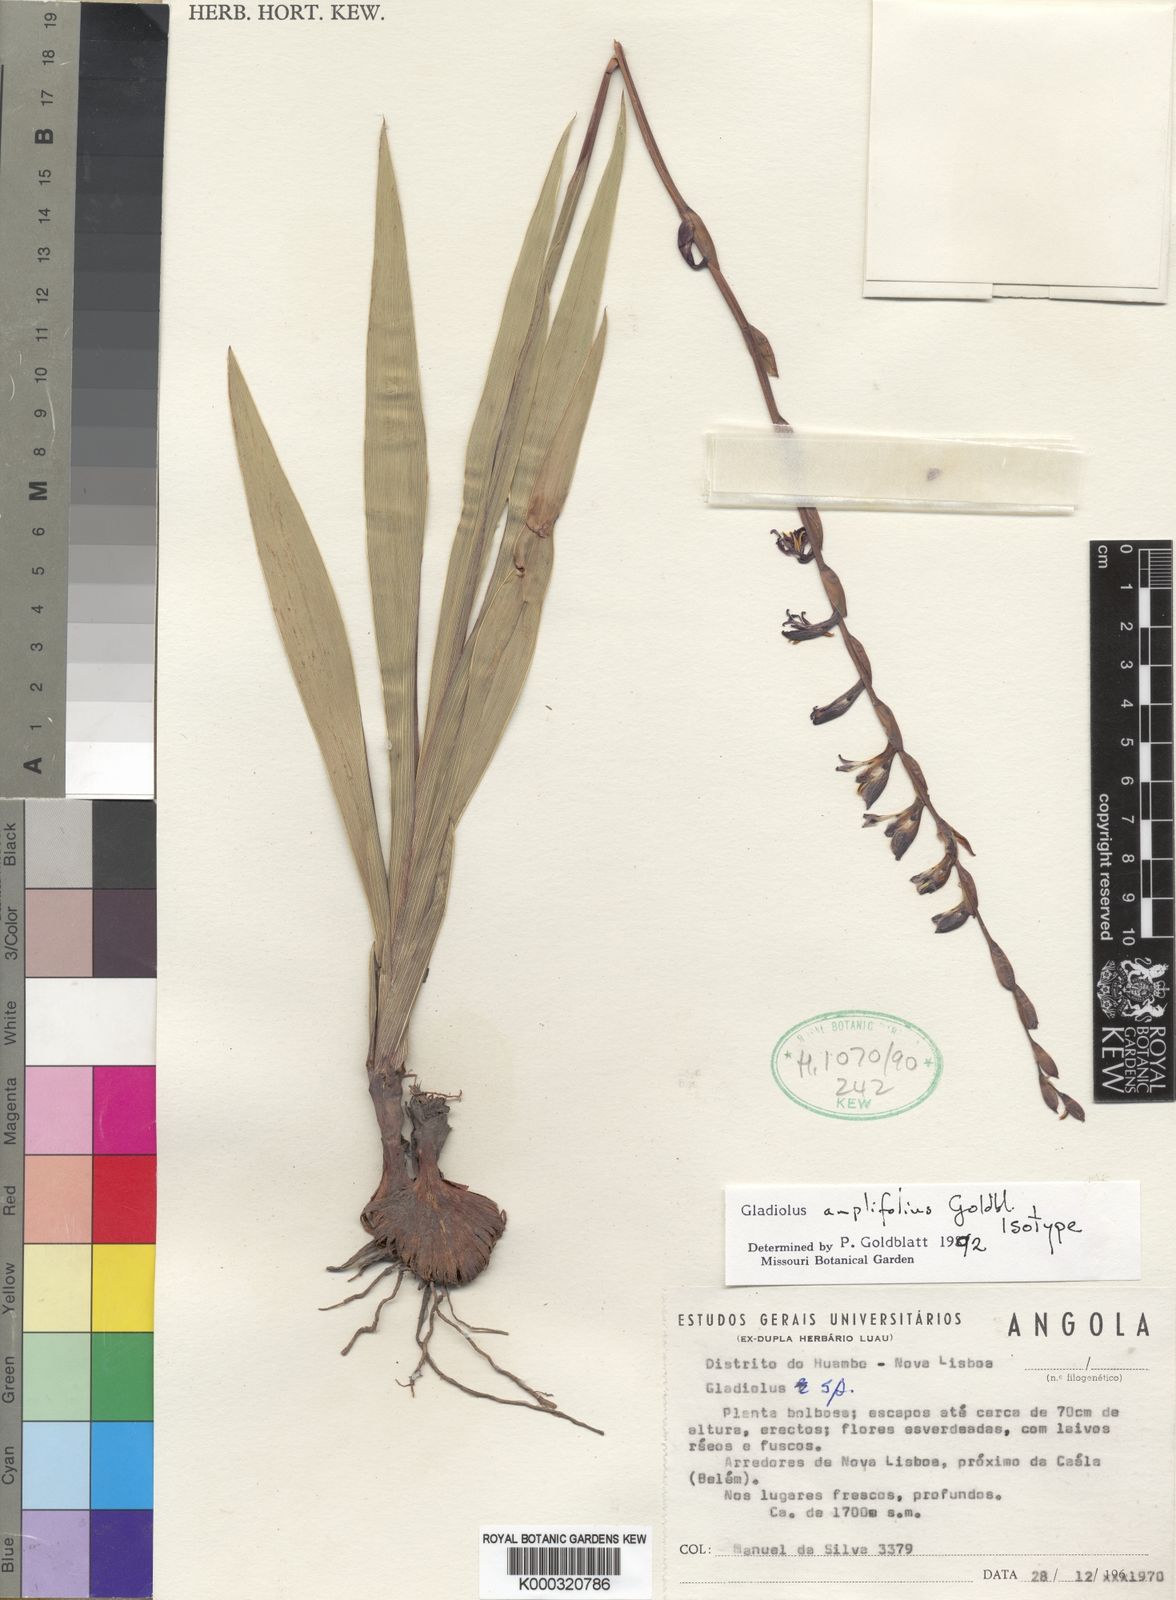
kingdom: Plantae
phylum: Tracheophyta
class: Liliopsida
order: Asparagales
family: Iridaceae
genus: Gladiolus
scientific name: Gladiolus amplifolius
